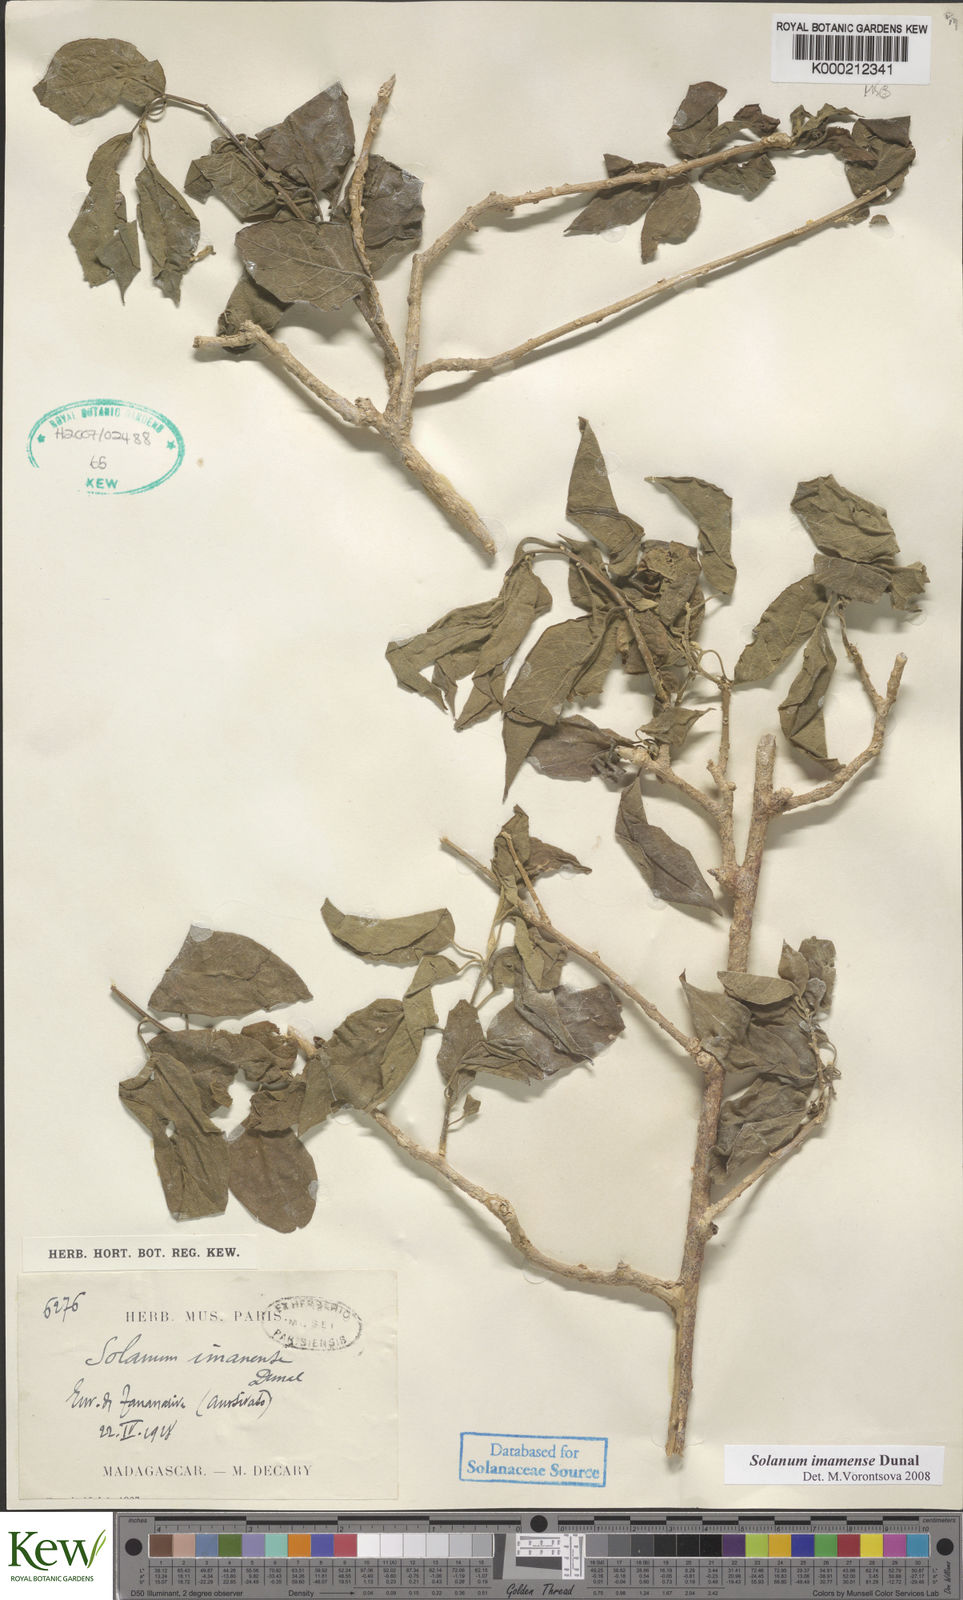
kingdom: Plantae
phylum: Tracheophyta
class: Magnoliopsida
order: Solanales
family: Solanaceae
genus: Solanum
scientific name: Solanum imamense
